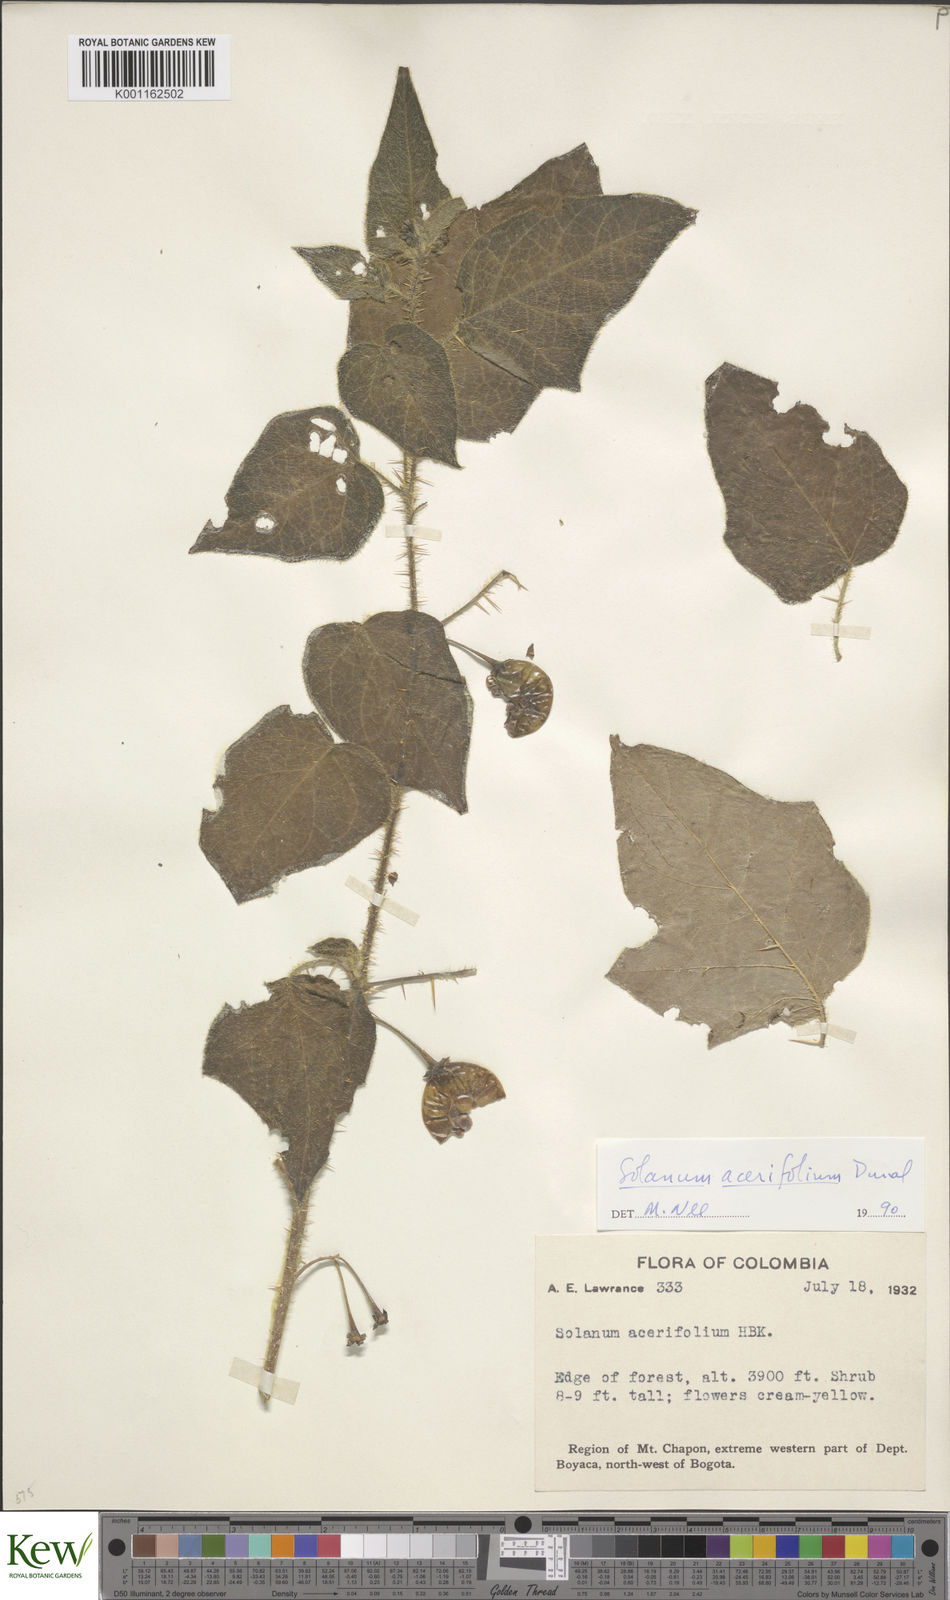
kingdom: Plantae
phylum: Tracheophyta
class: Magnoliopsida
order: Solanales
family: Solanaceae
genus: Solanum
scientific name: Solanum acerifolium
